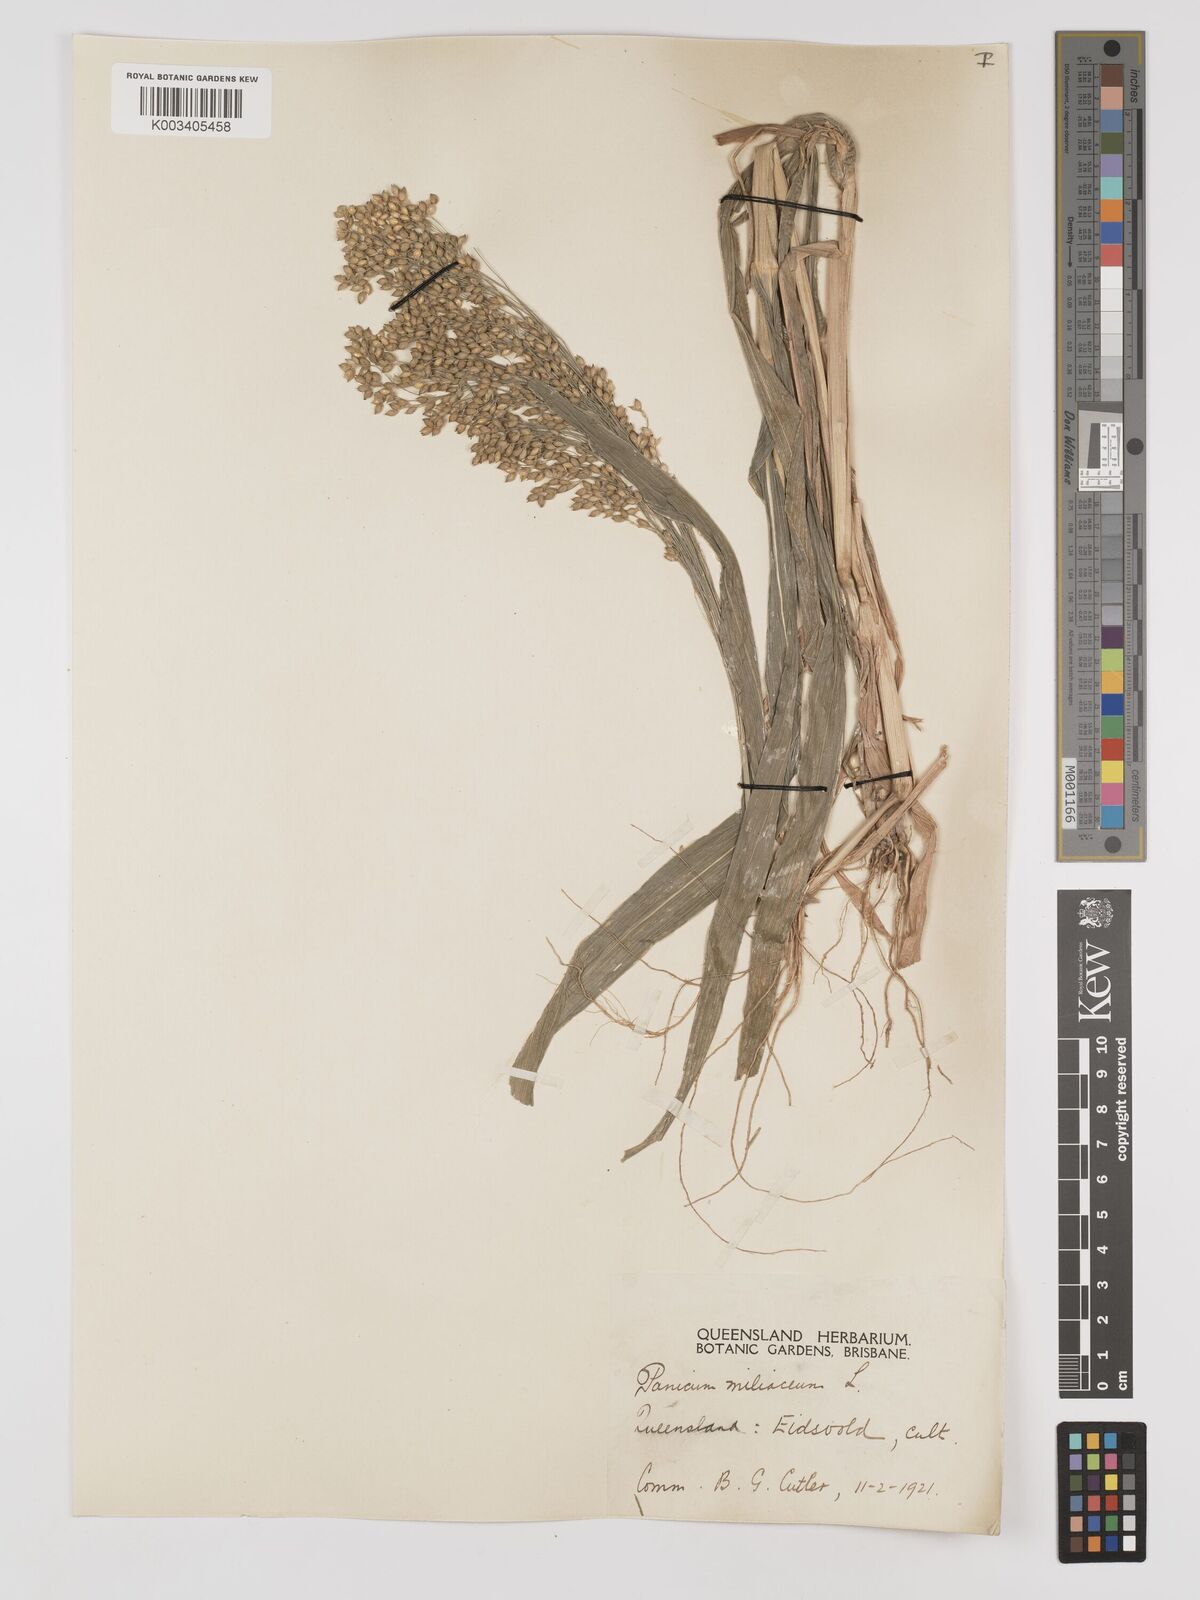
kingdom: Plantae
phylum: Tracheophyta
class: Liliopsida
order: Poales
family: Poaceae
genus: Panicum
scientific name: Panicum miliaceum
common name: Common millet
